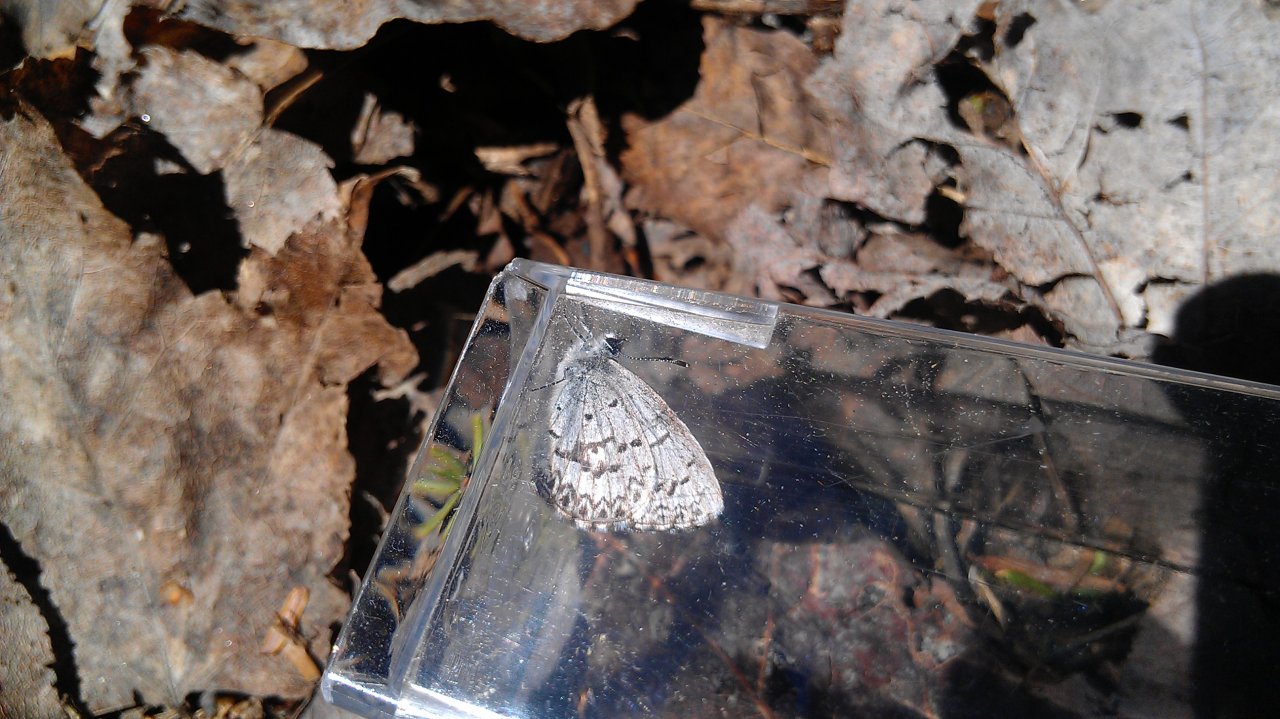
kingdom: Animalia
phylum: Arthropoda
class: Insecta
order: Lepidoptera
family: Lycaenidae
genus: Celastrina
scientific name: Celastrina lucia
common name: Northern Spring Azure
